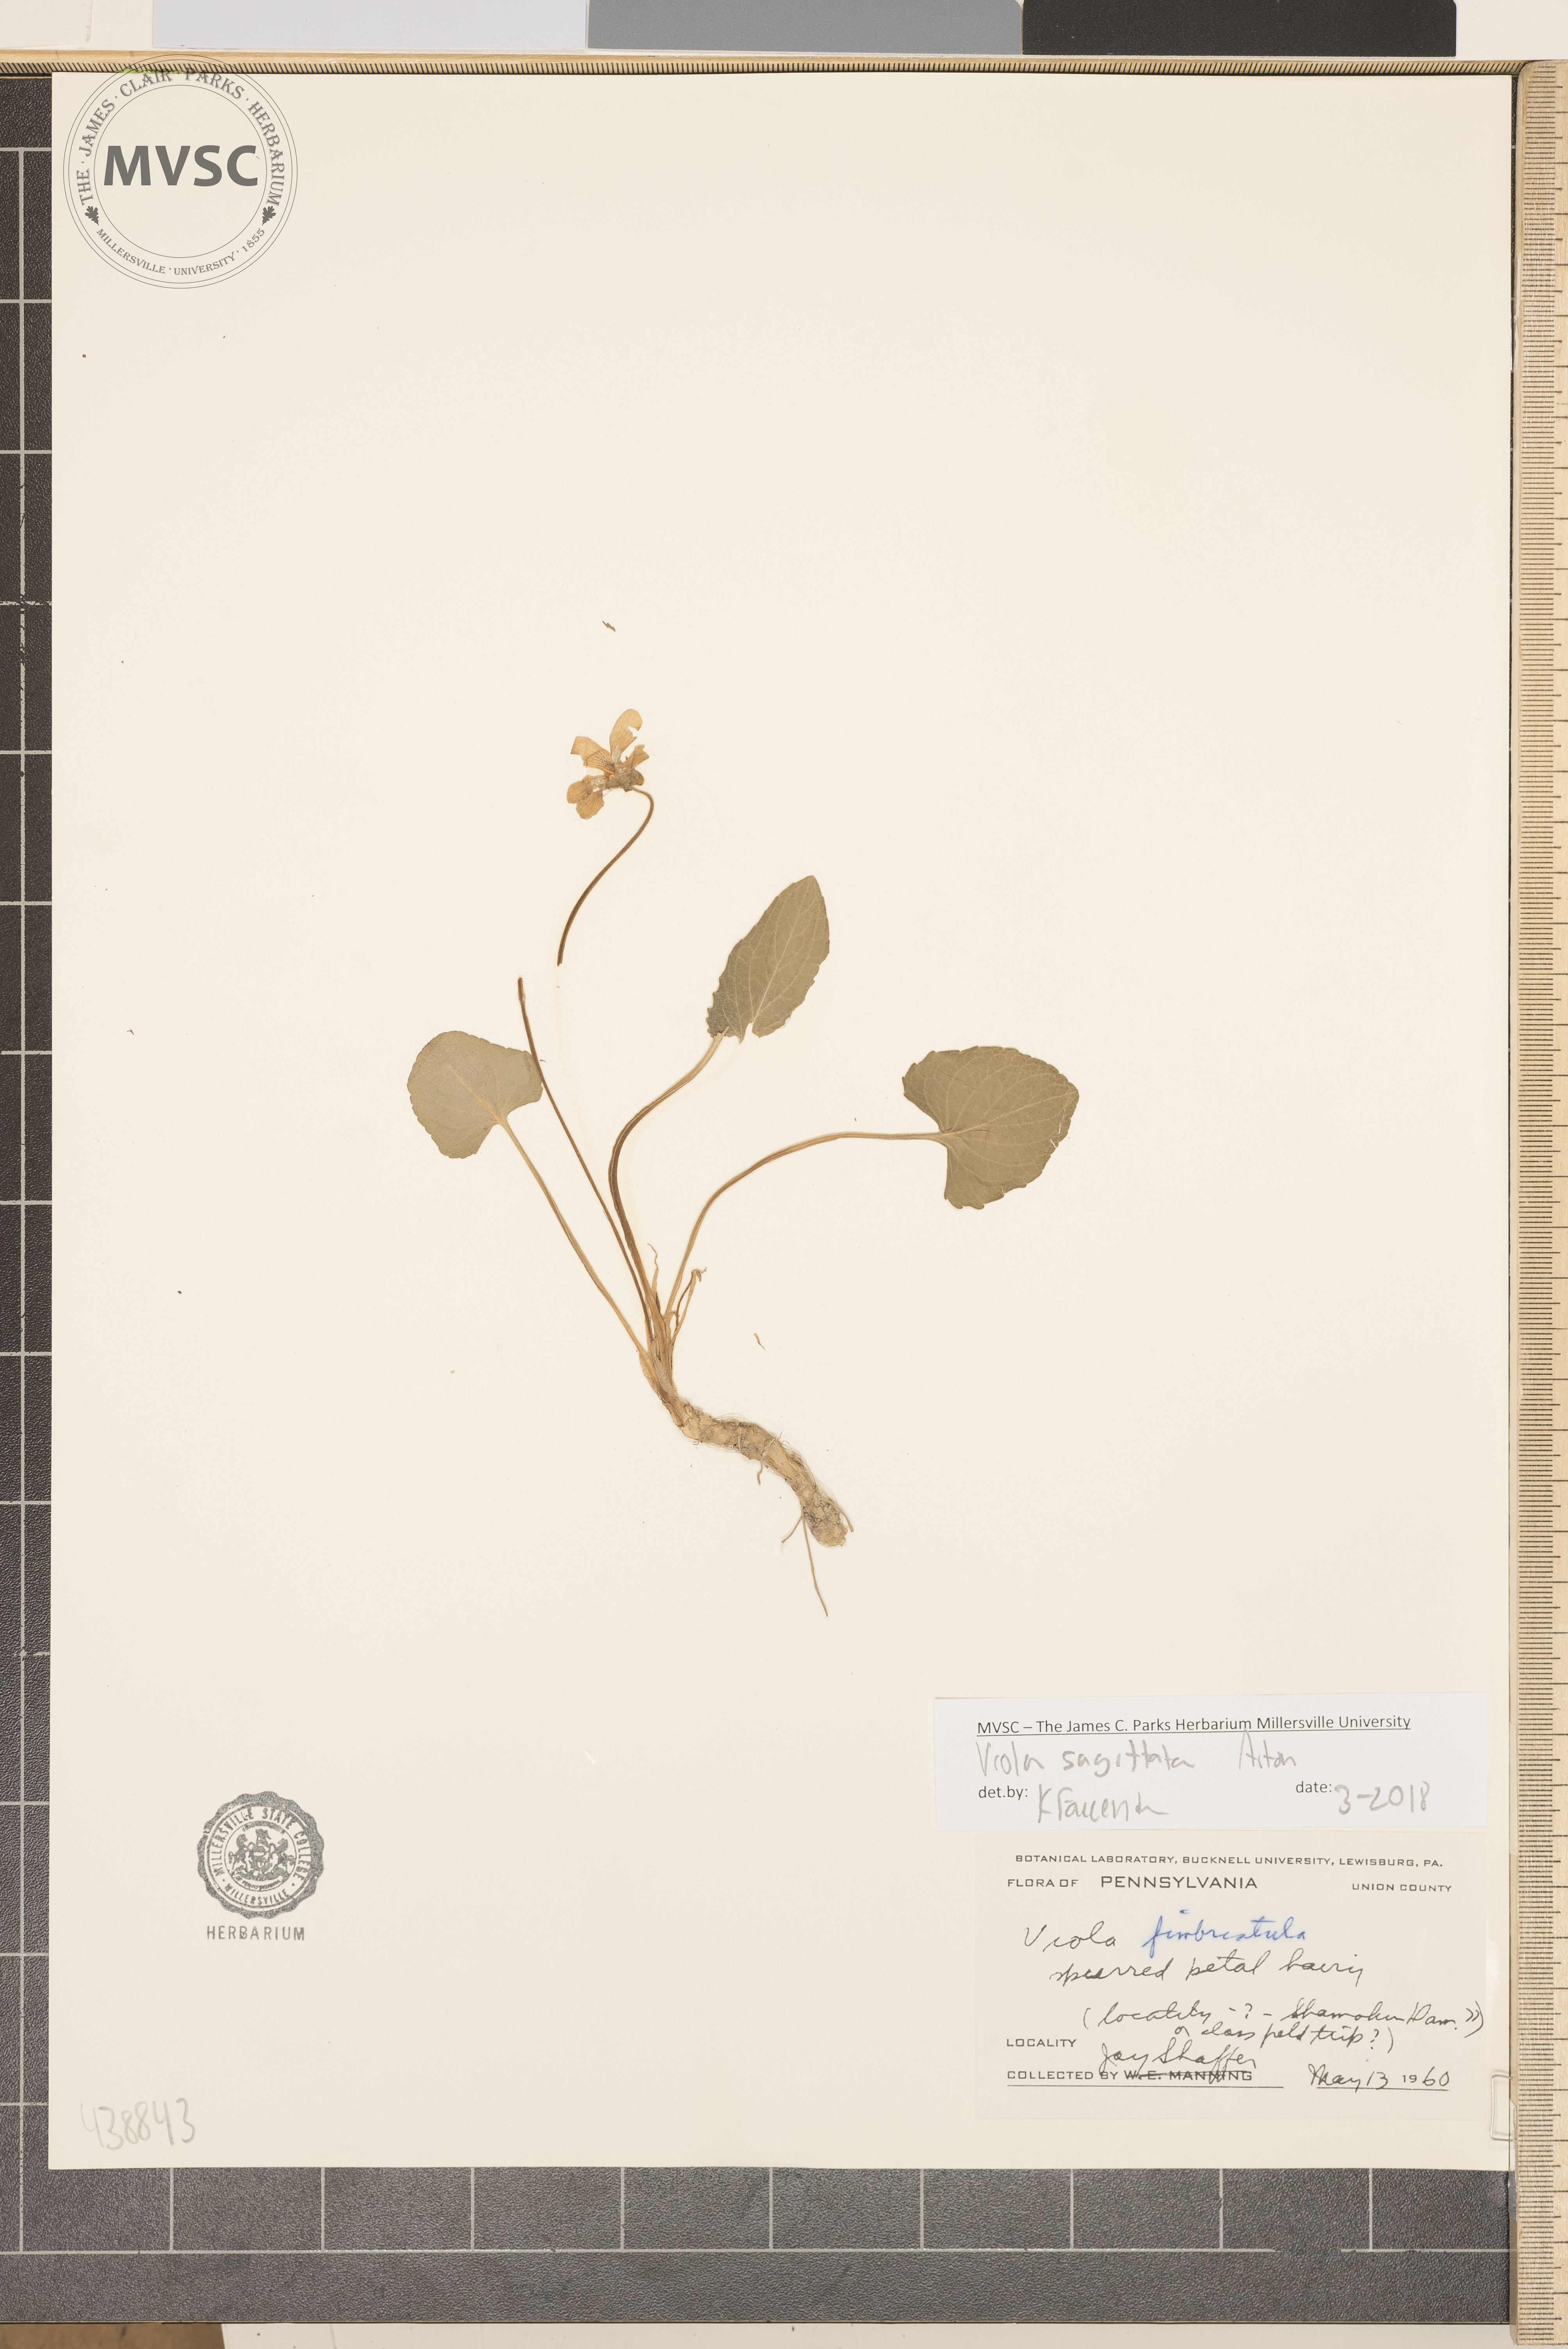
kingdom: Plantae
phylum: Tracheophyta
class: Magnoliopsida
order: Malpighiales
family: Violaceae
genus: Viola
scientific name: Viola sagittata
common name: Arrowhead violet
